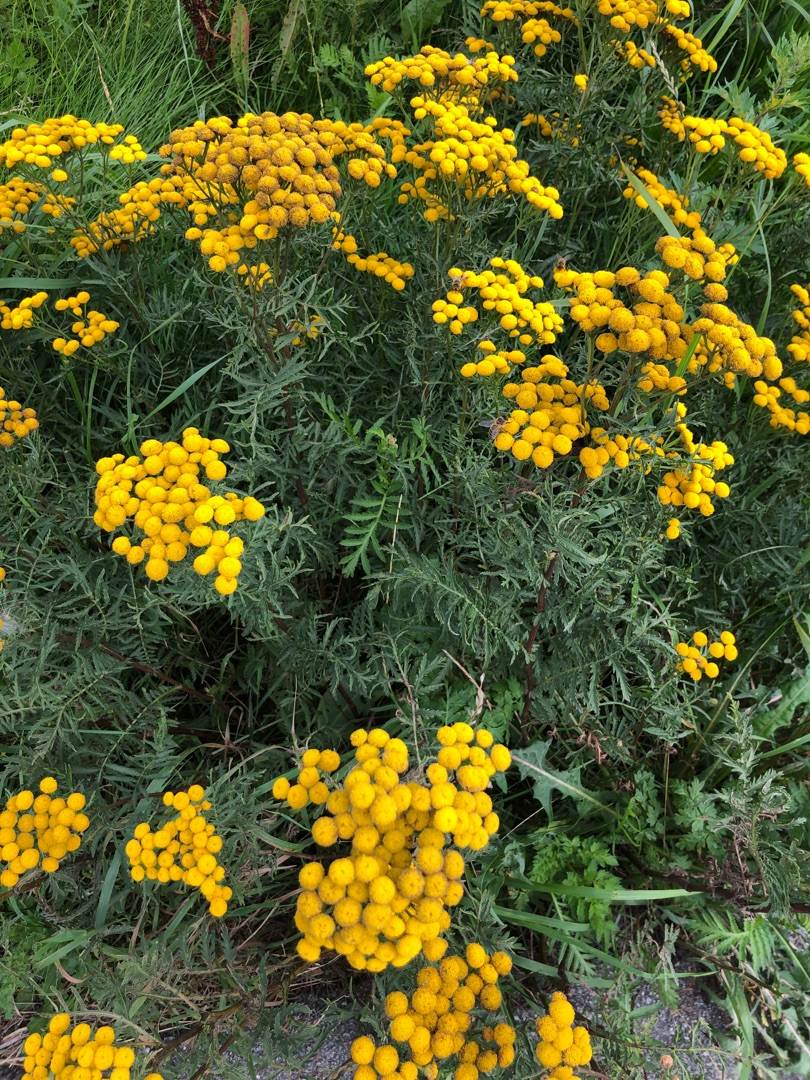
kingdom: Plantae
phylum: Tracheophyta
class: Magnoliopsida
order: Asterales
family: Asteraceae
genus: Tanacetum
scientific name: Tanacetum vulgare
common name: Rejnfan
